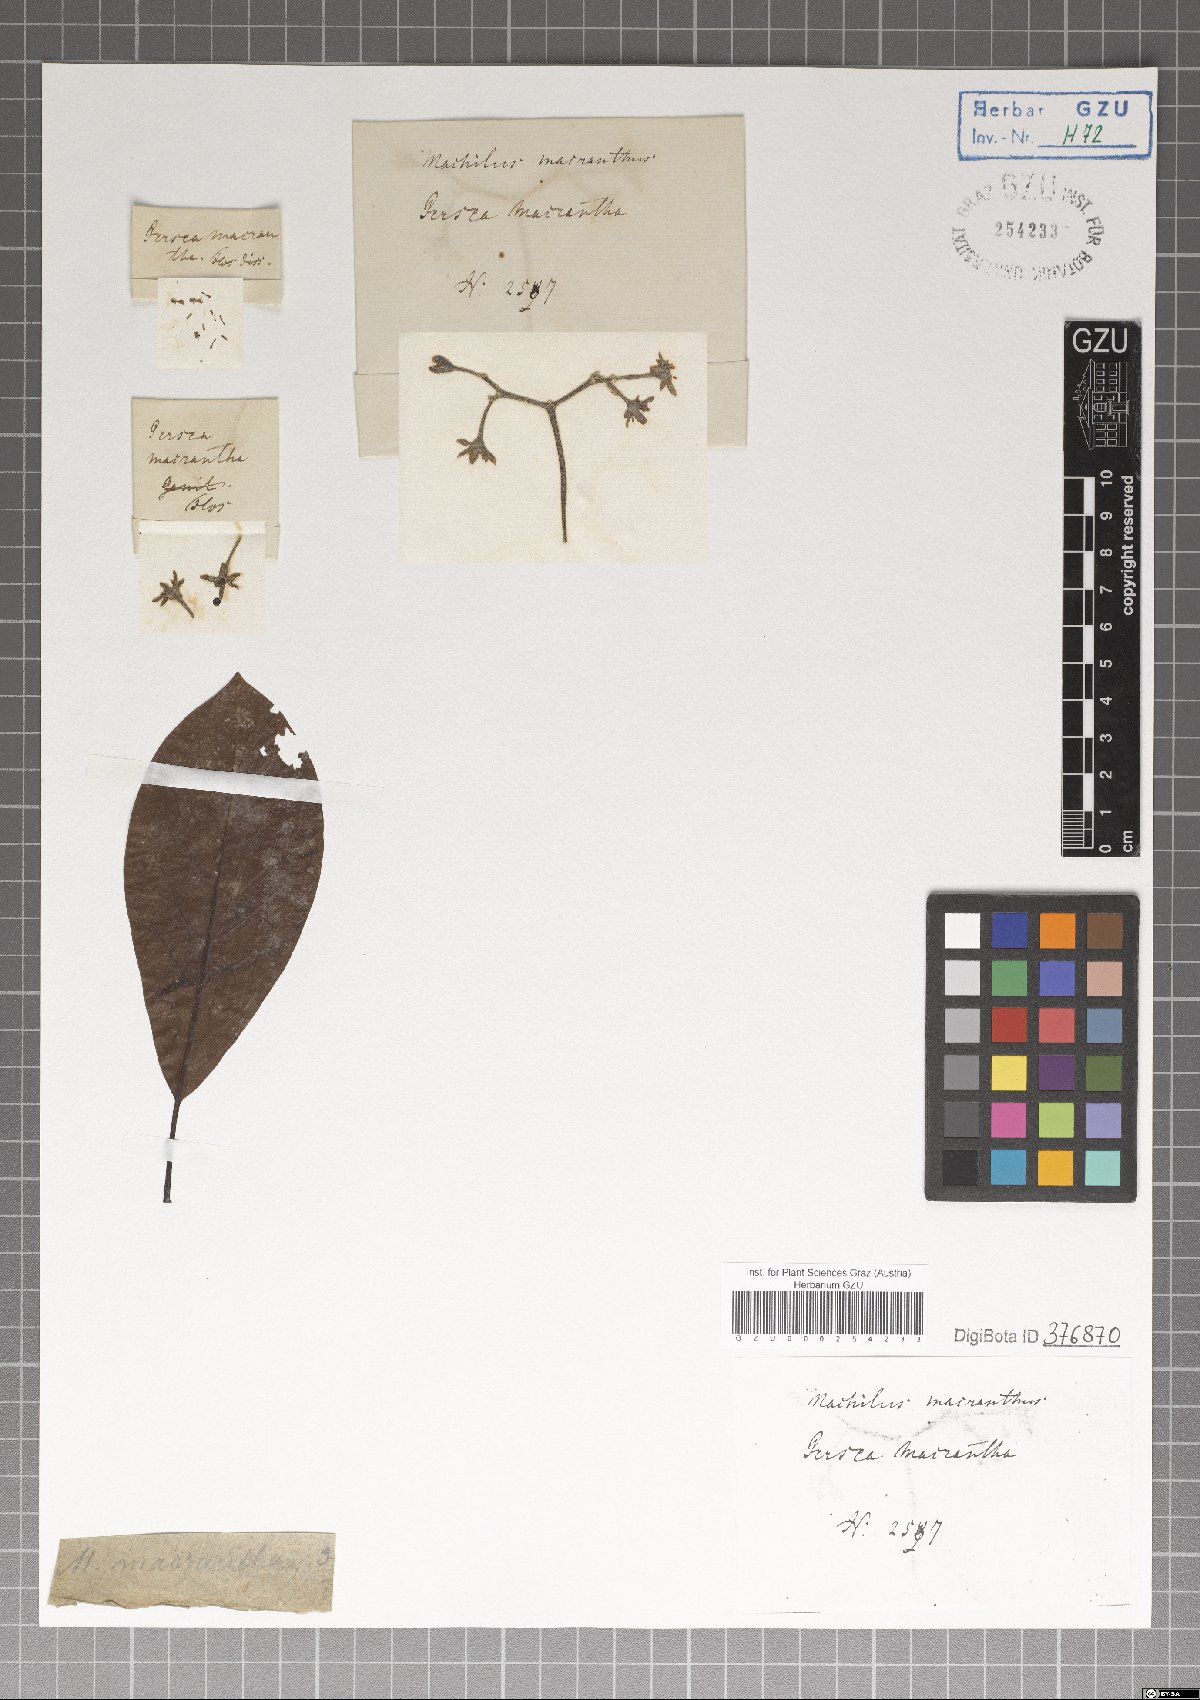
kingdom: Plantae
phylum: Tracheophyta
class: Magnoliopsida
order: Laurales
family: Lauraceae
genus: Machilus
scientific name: Machilus glaucescens
